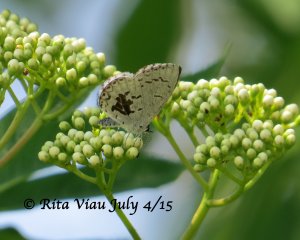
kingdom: Animalia
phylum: Arthropoda
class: Insecta
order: Lepidoptera
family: Lycaenidae
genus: Celastrina
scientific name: Celastrina
